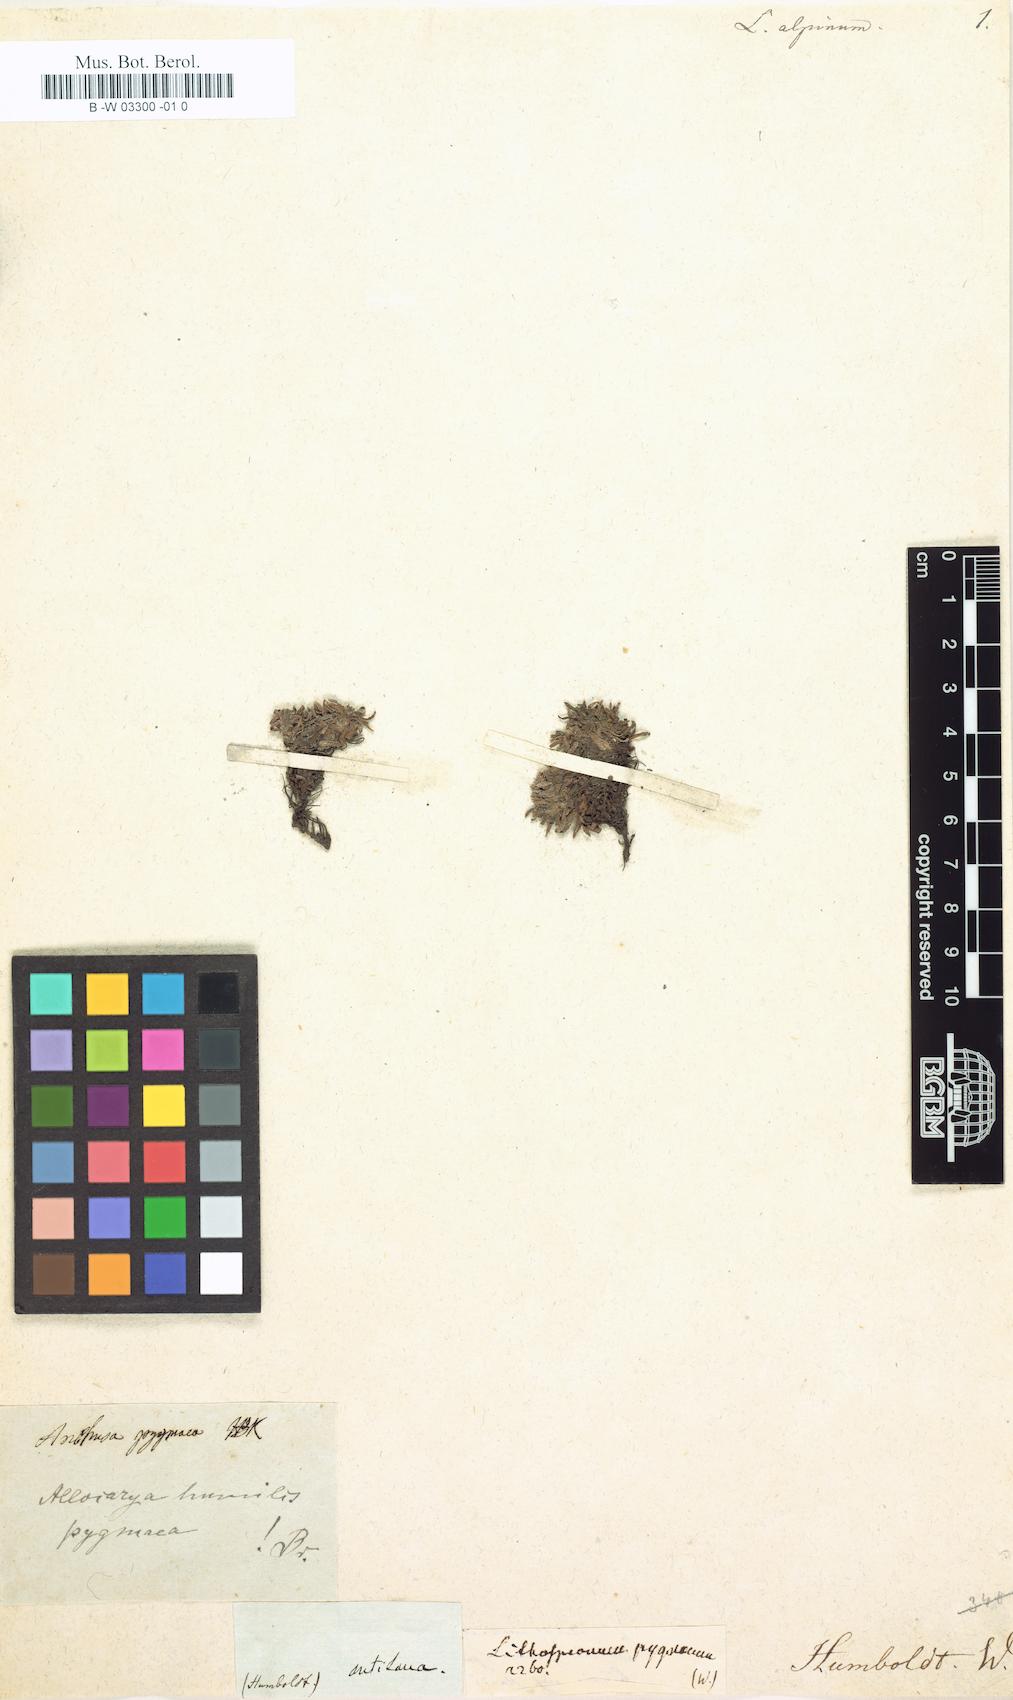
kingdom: Plantae
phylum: Tracheophyta
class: Magnoliopsida
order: Boraginales
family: Boraginaceae
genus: Plagiobothrys
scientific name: Plagiobothrys linifolius
